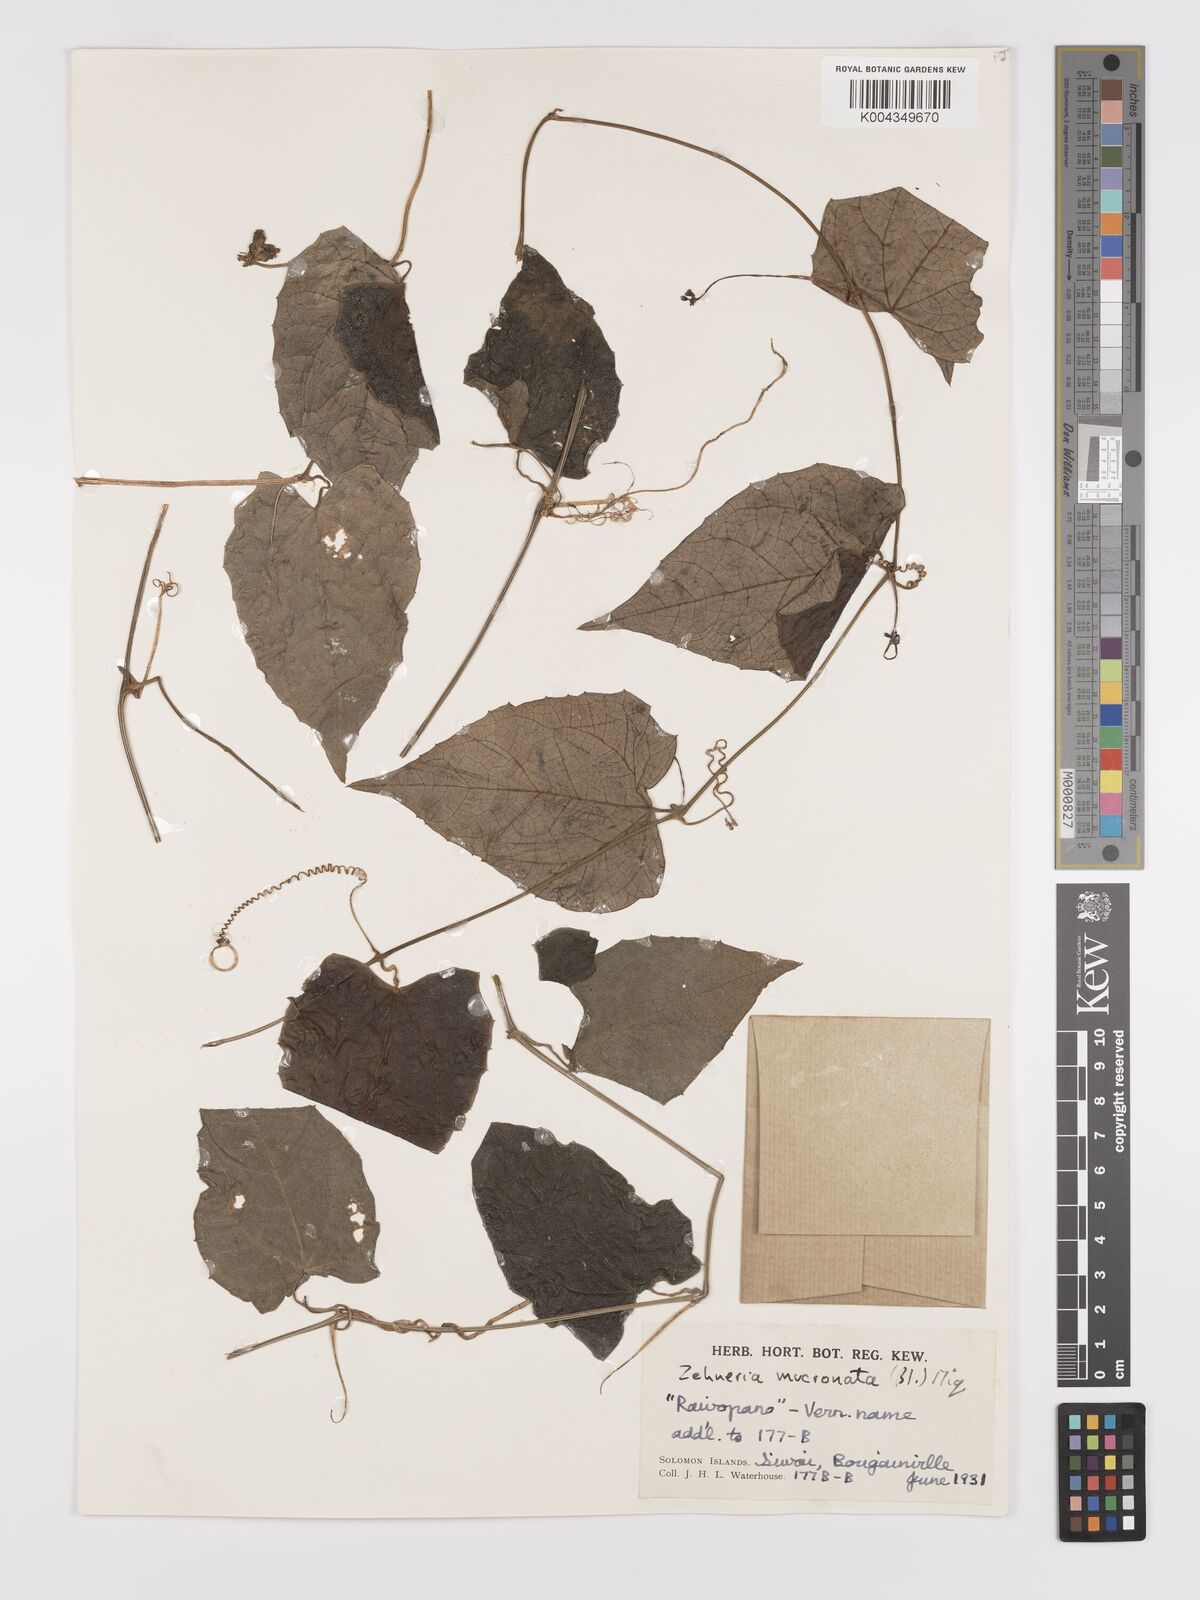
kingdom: Plantae
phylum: Tracheophyta
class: Magnoliopsida
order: Cucurbitales
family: Cucurbitaceae
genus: Zehneria
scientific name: Zehneria mucronata
